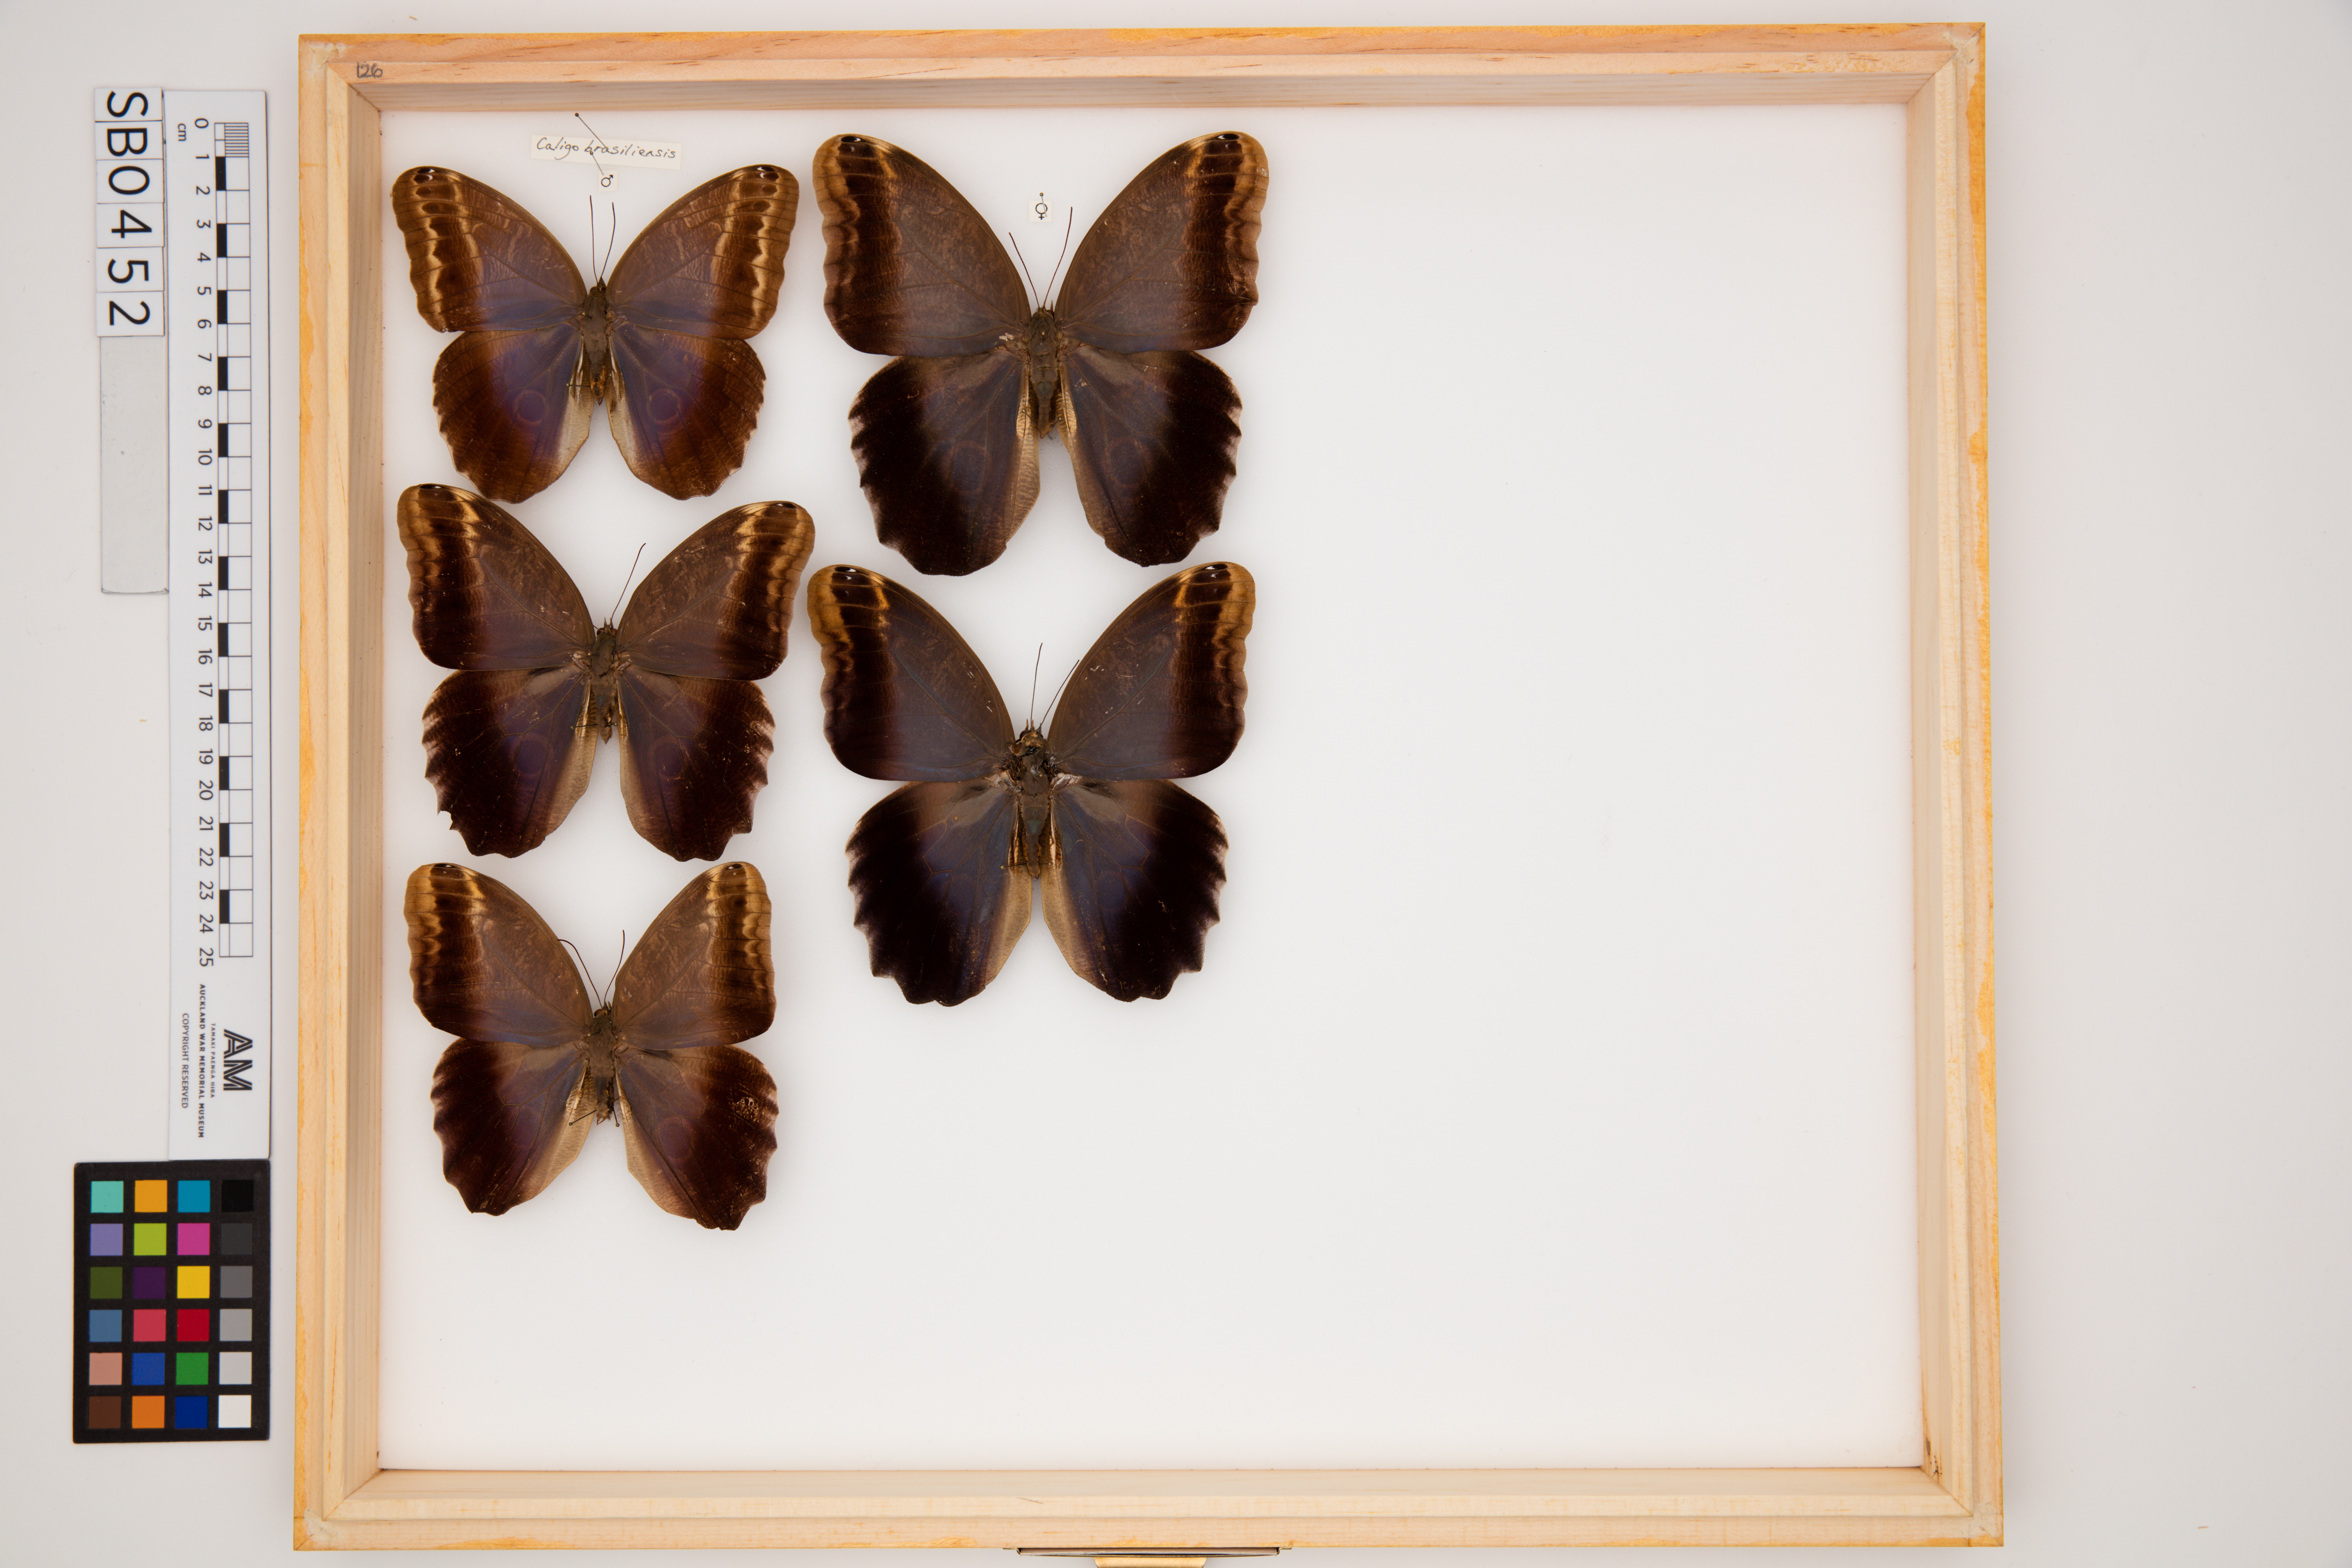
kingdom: Animalia
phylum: Arthropoda
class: Insecta
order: Lepidoptera
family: Nymphalidae
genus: Caligo
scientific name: Caligo brasiliensis
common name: Dark owl-butterfly
